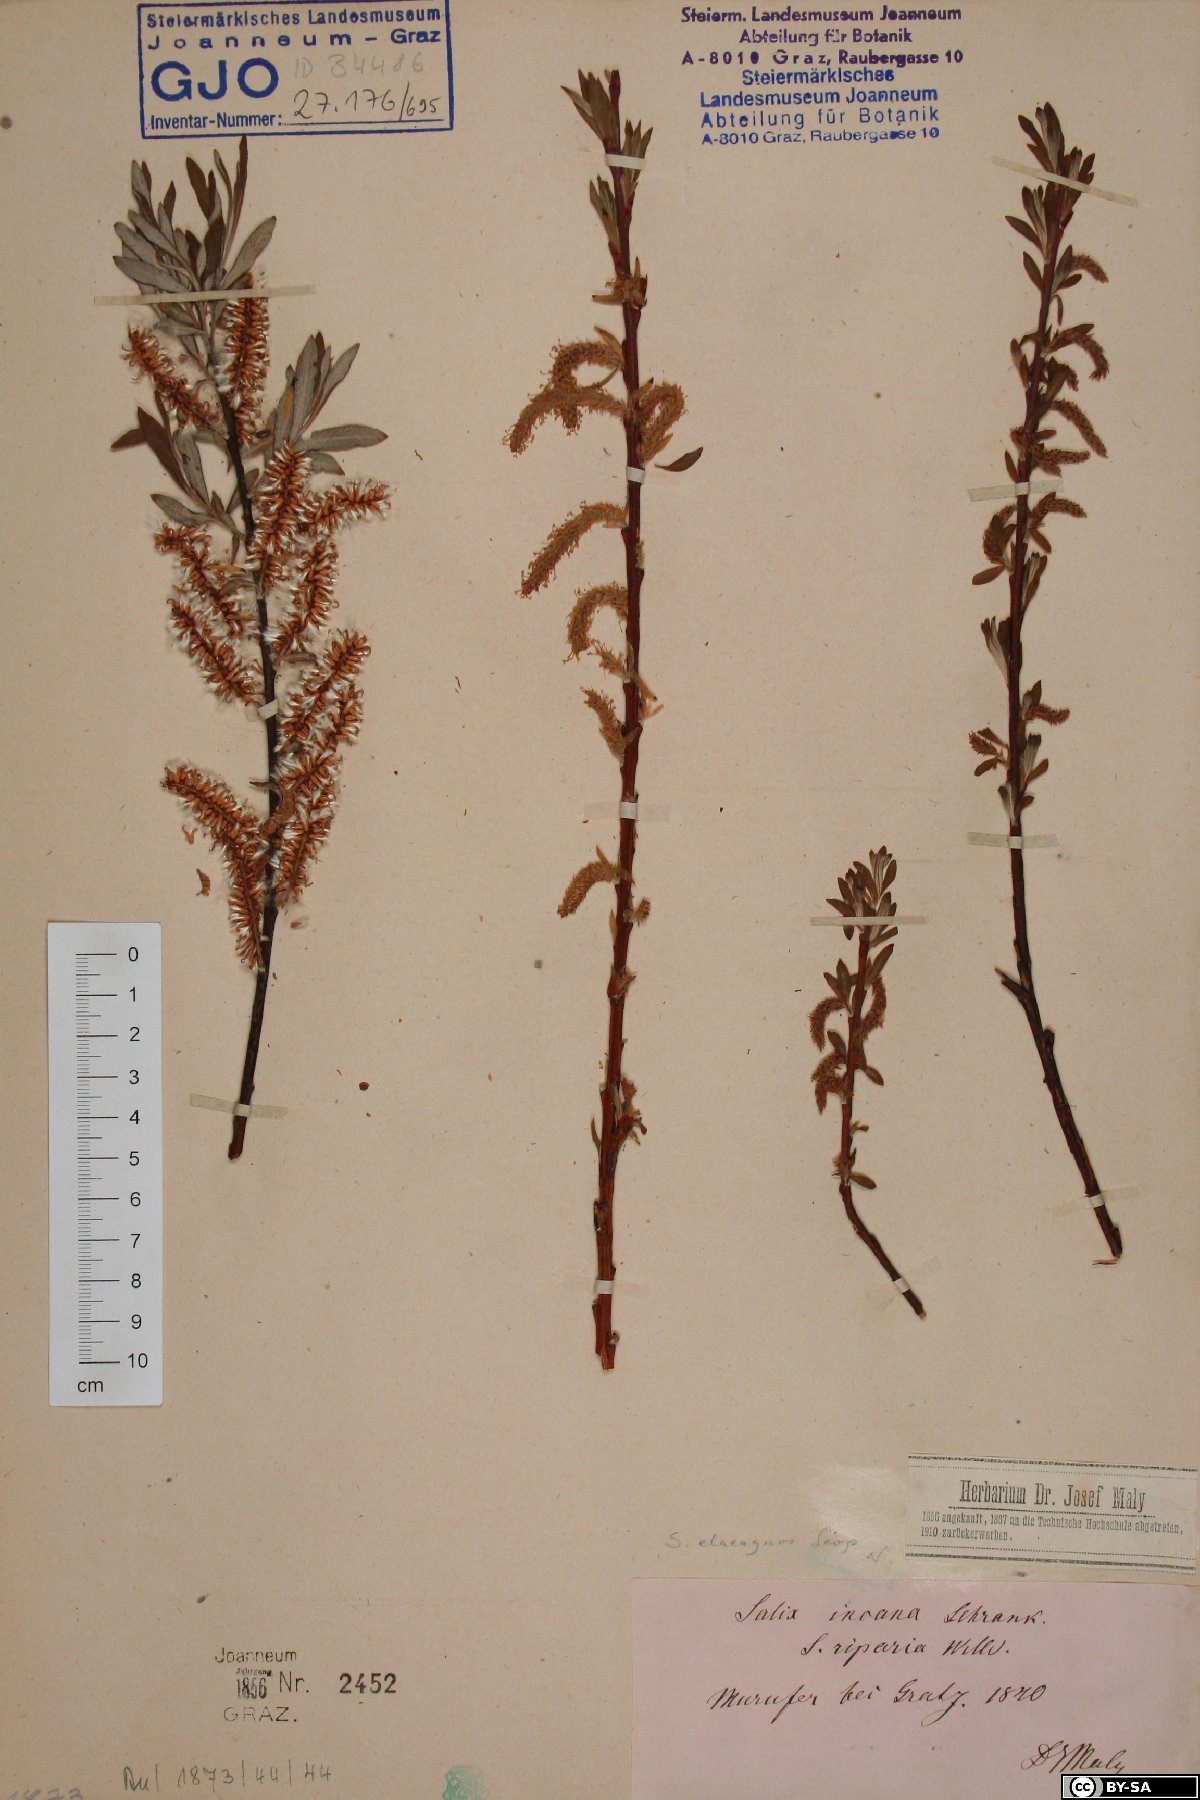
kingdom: Plantae
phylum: Tracheophyta
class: Magnoliopsida
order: Malpighiales
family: Salicaceae
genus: Salix
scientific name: Salix eleagnos
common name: Elaeagnus willow
